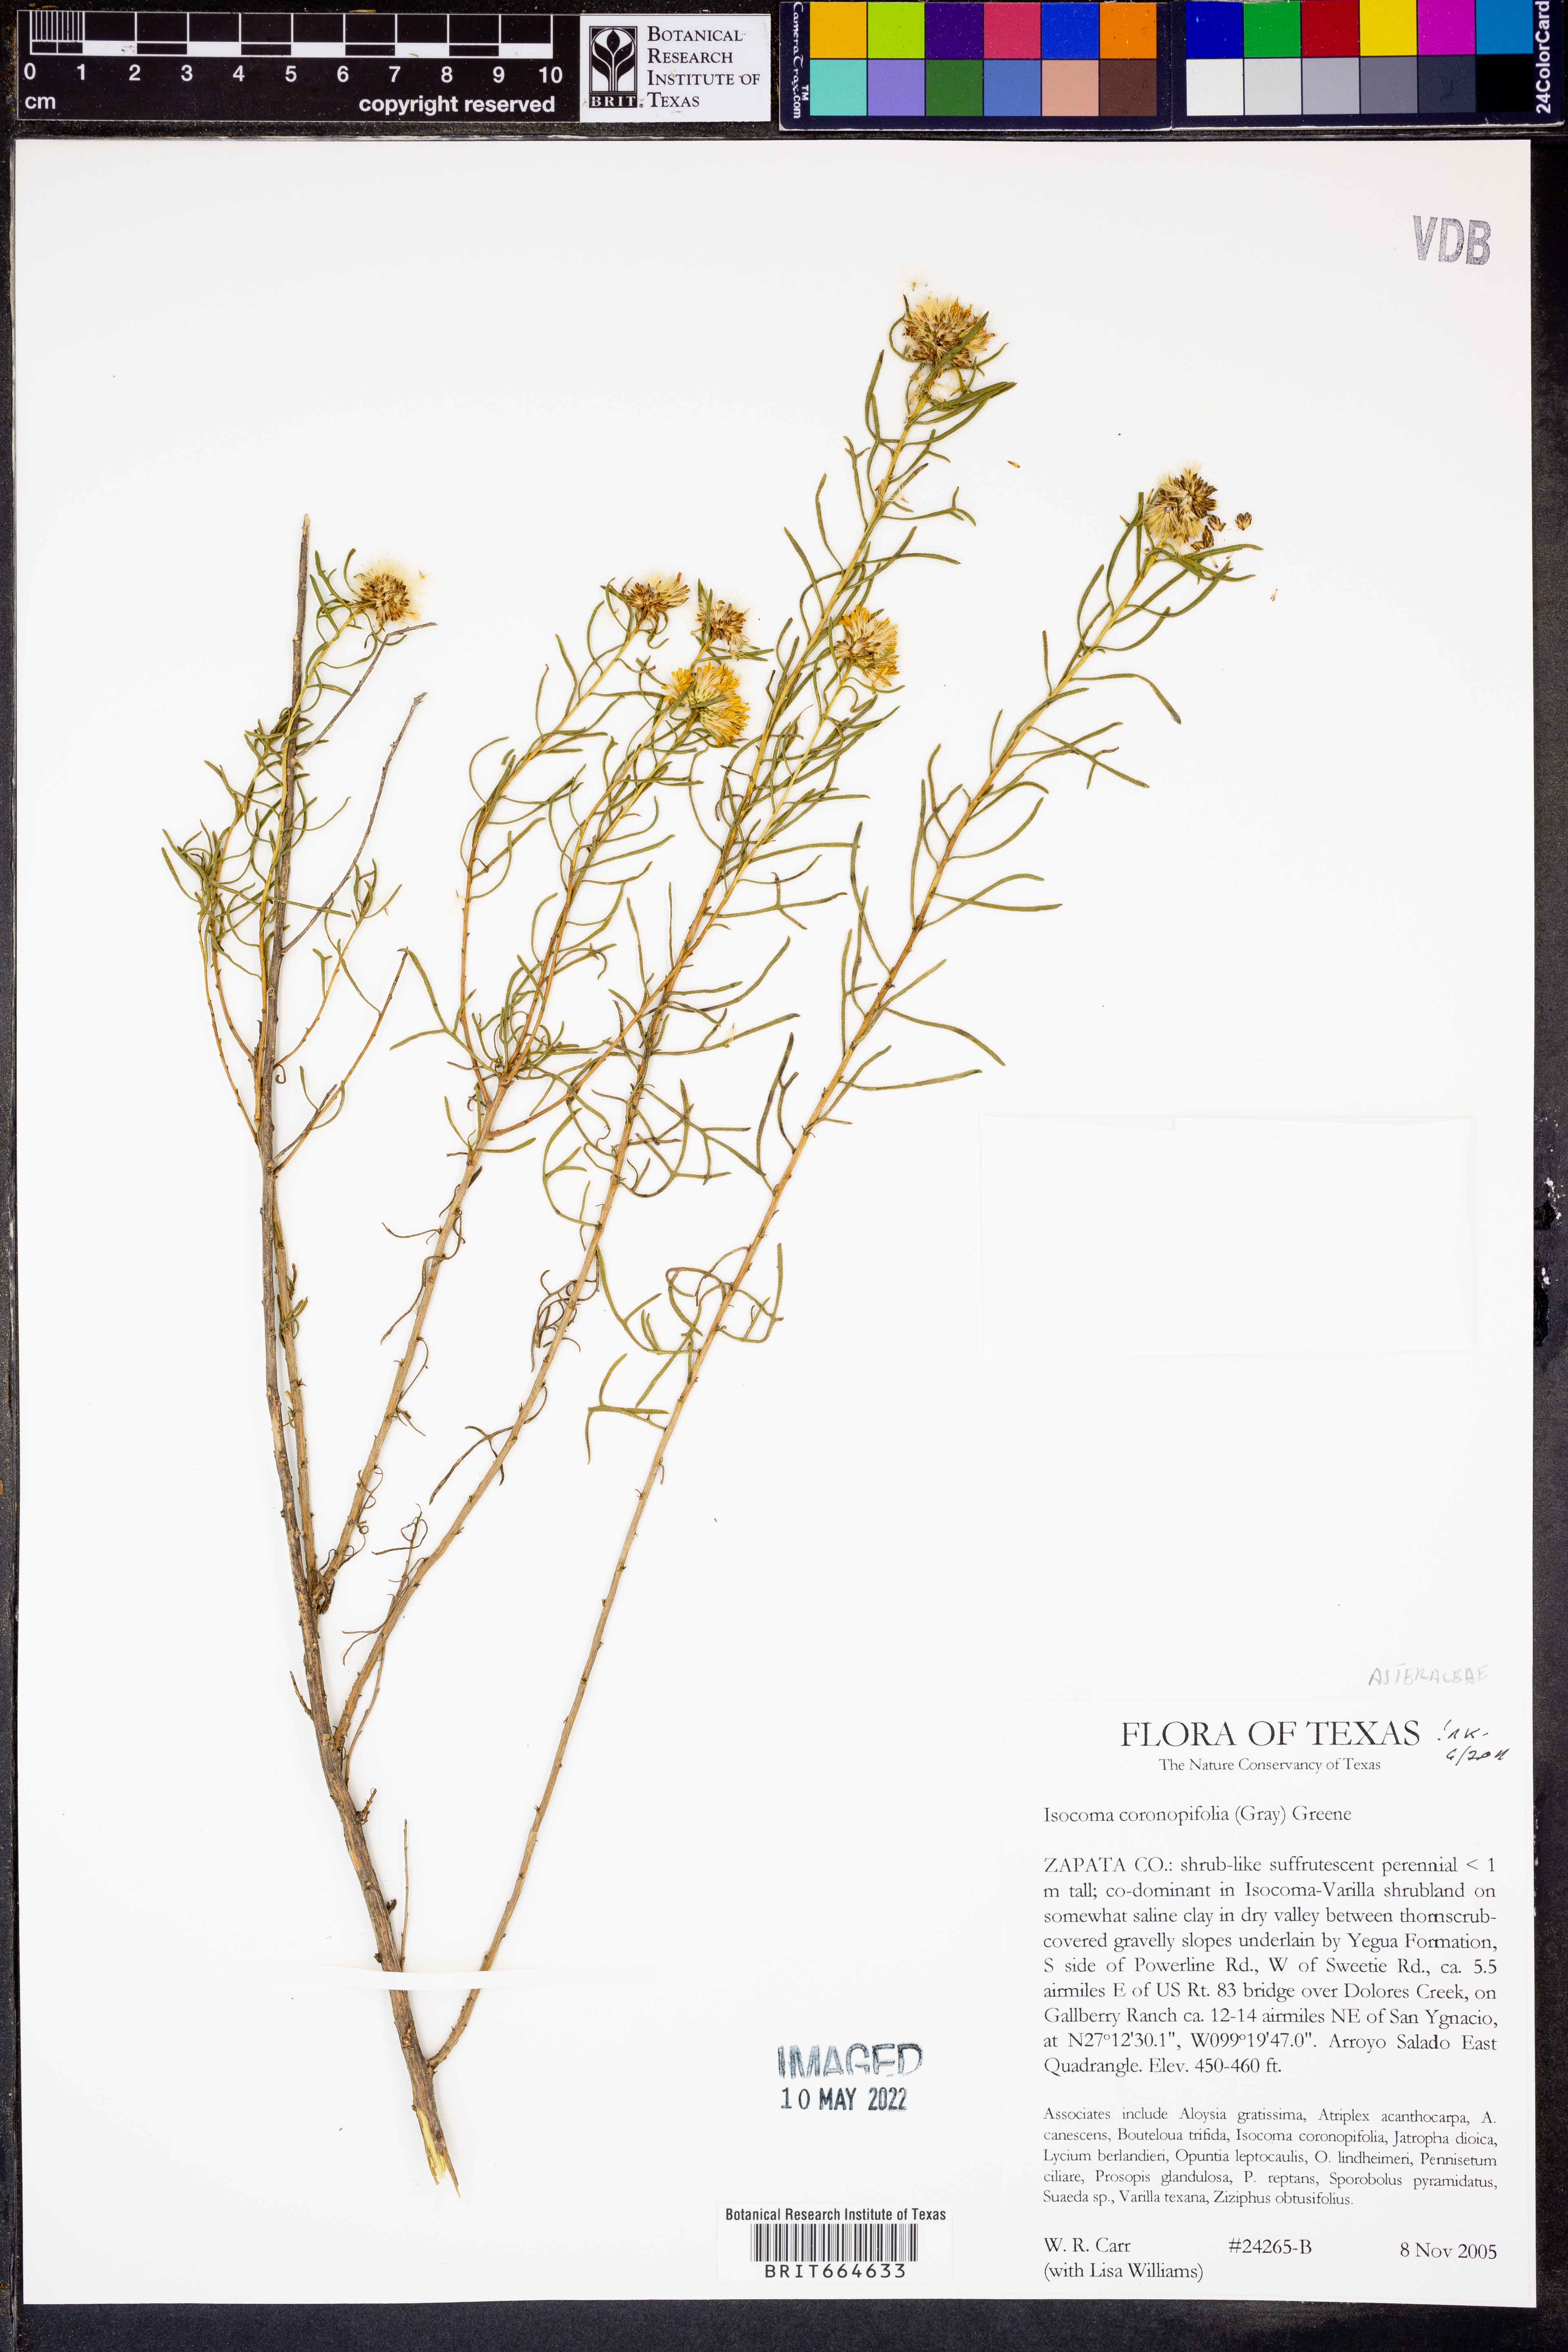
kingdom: Plantae
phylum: Tracheophyta
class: Magnoliopsida
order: Asterales
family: Asteraceae
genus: Isocoma
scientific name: Isocoma coronopifolia
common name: Common jimmyweed
